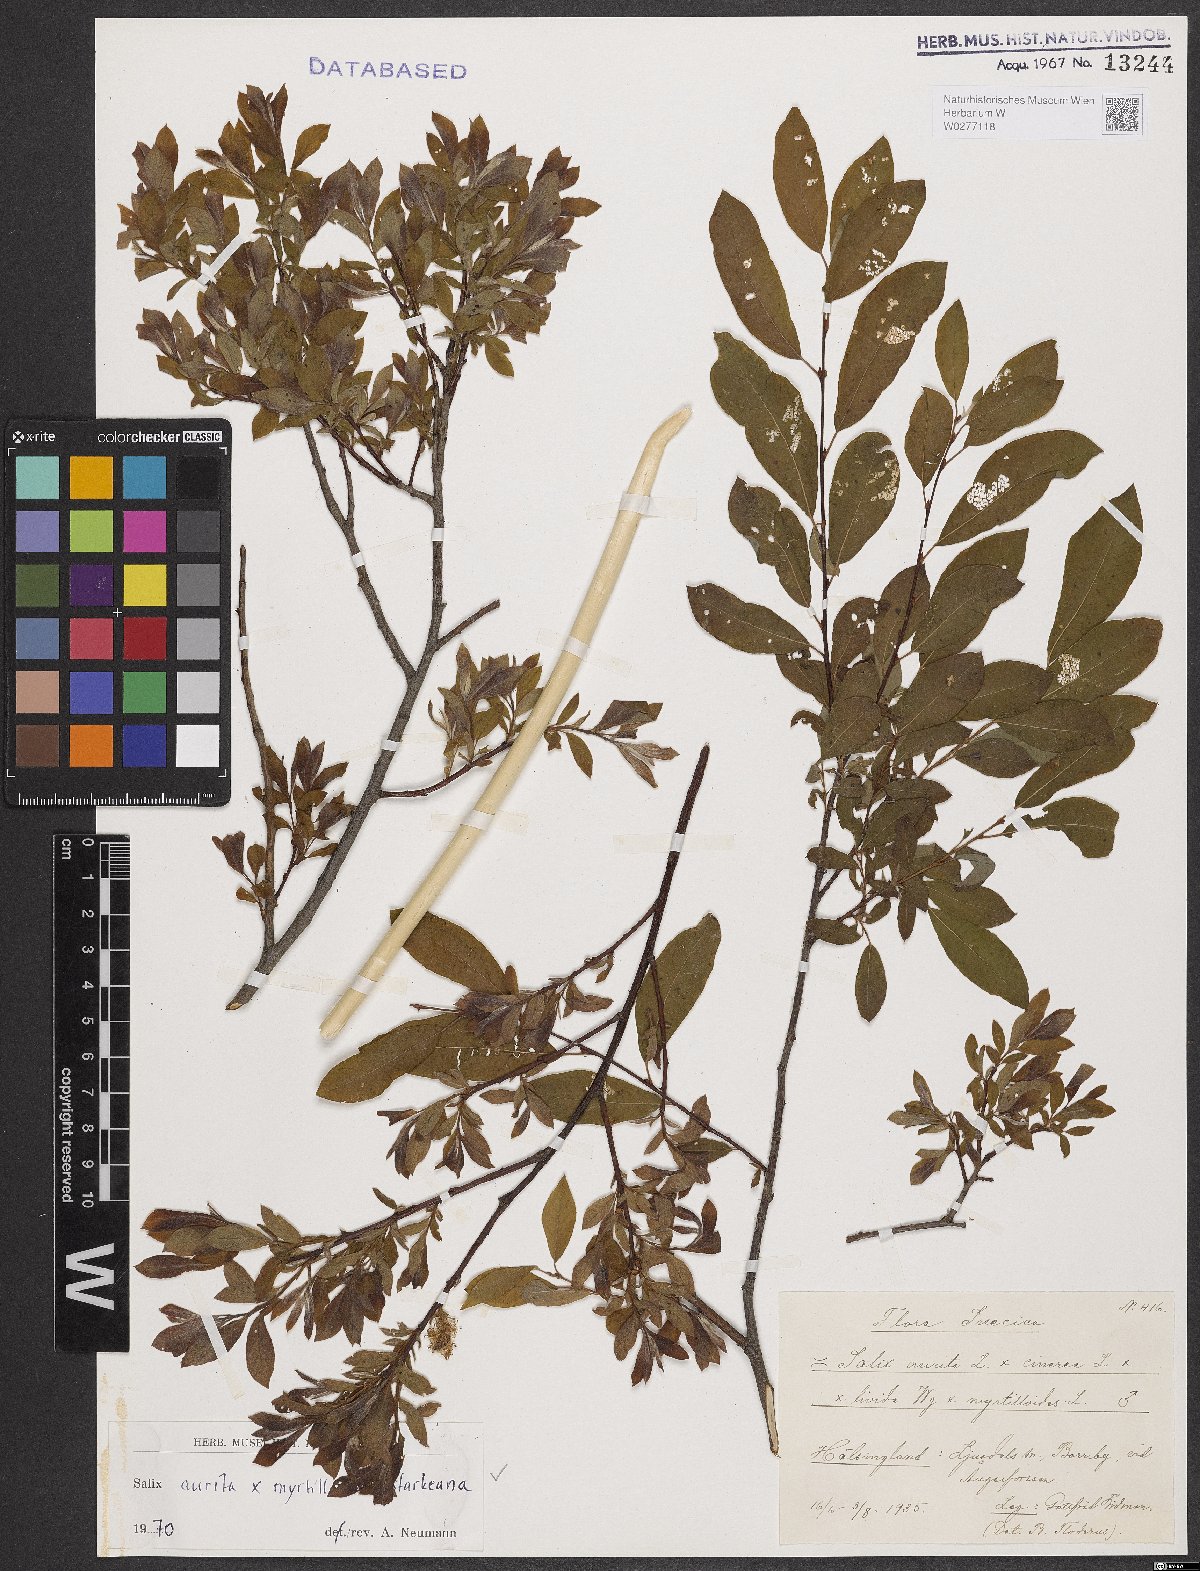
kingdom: Plantae
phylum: Tracheophyta
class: Magnoliopsida
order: Malpighiales
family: Salicaceae
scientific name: Salicaceae
